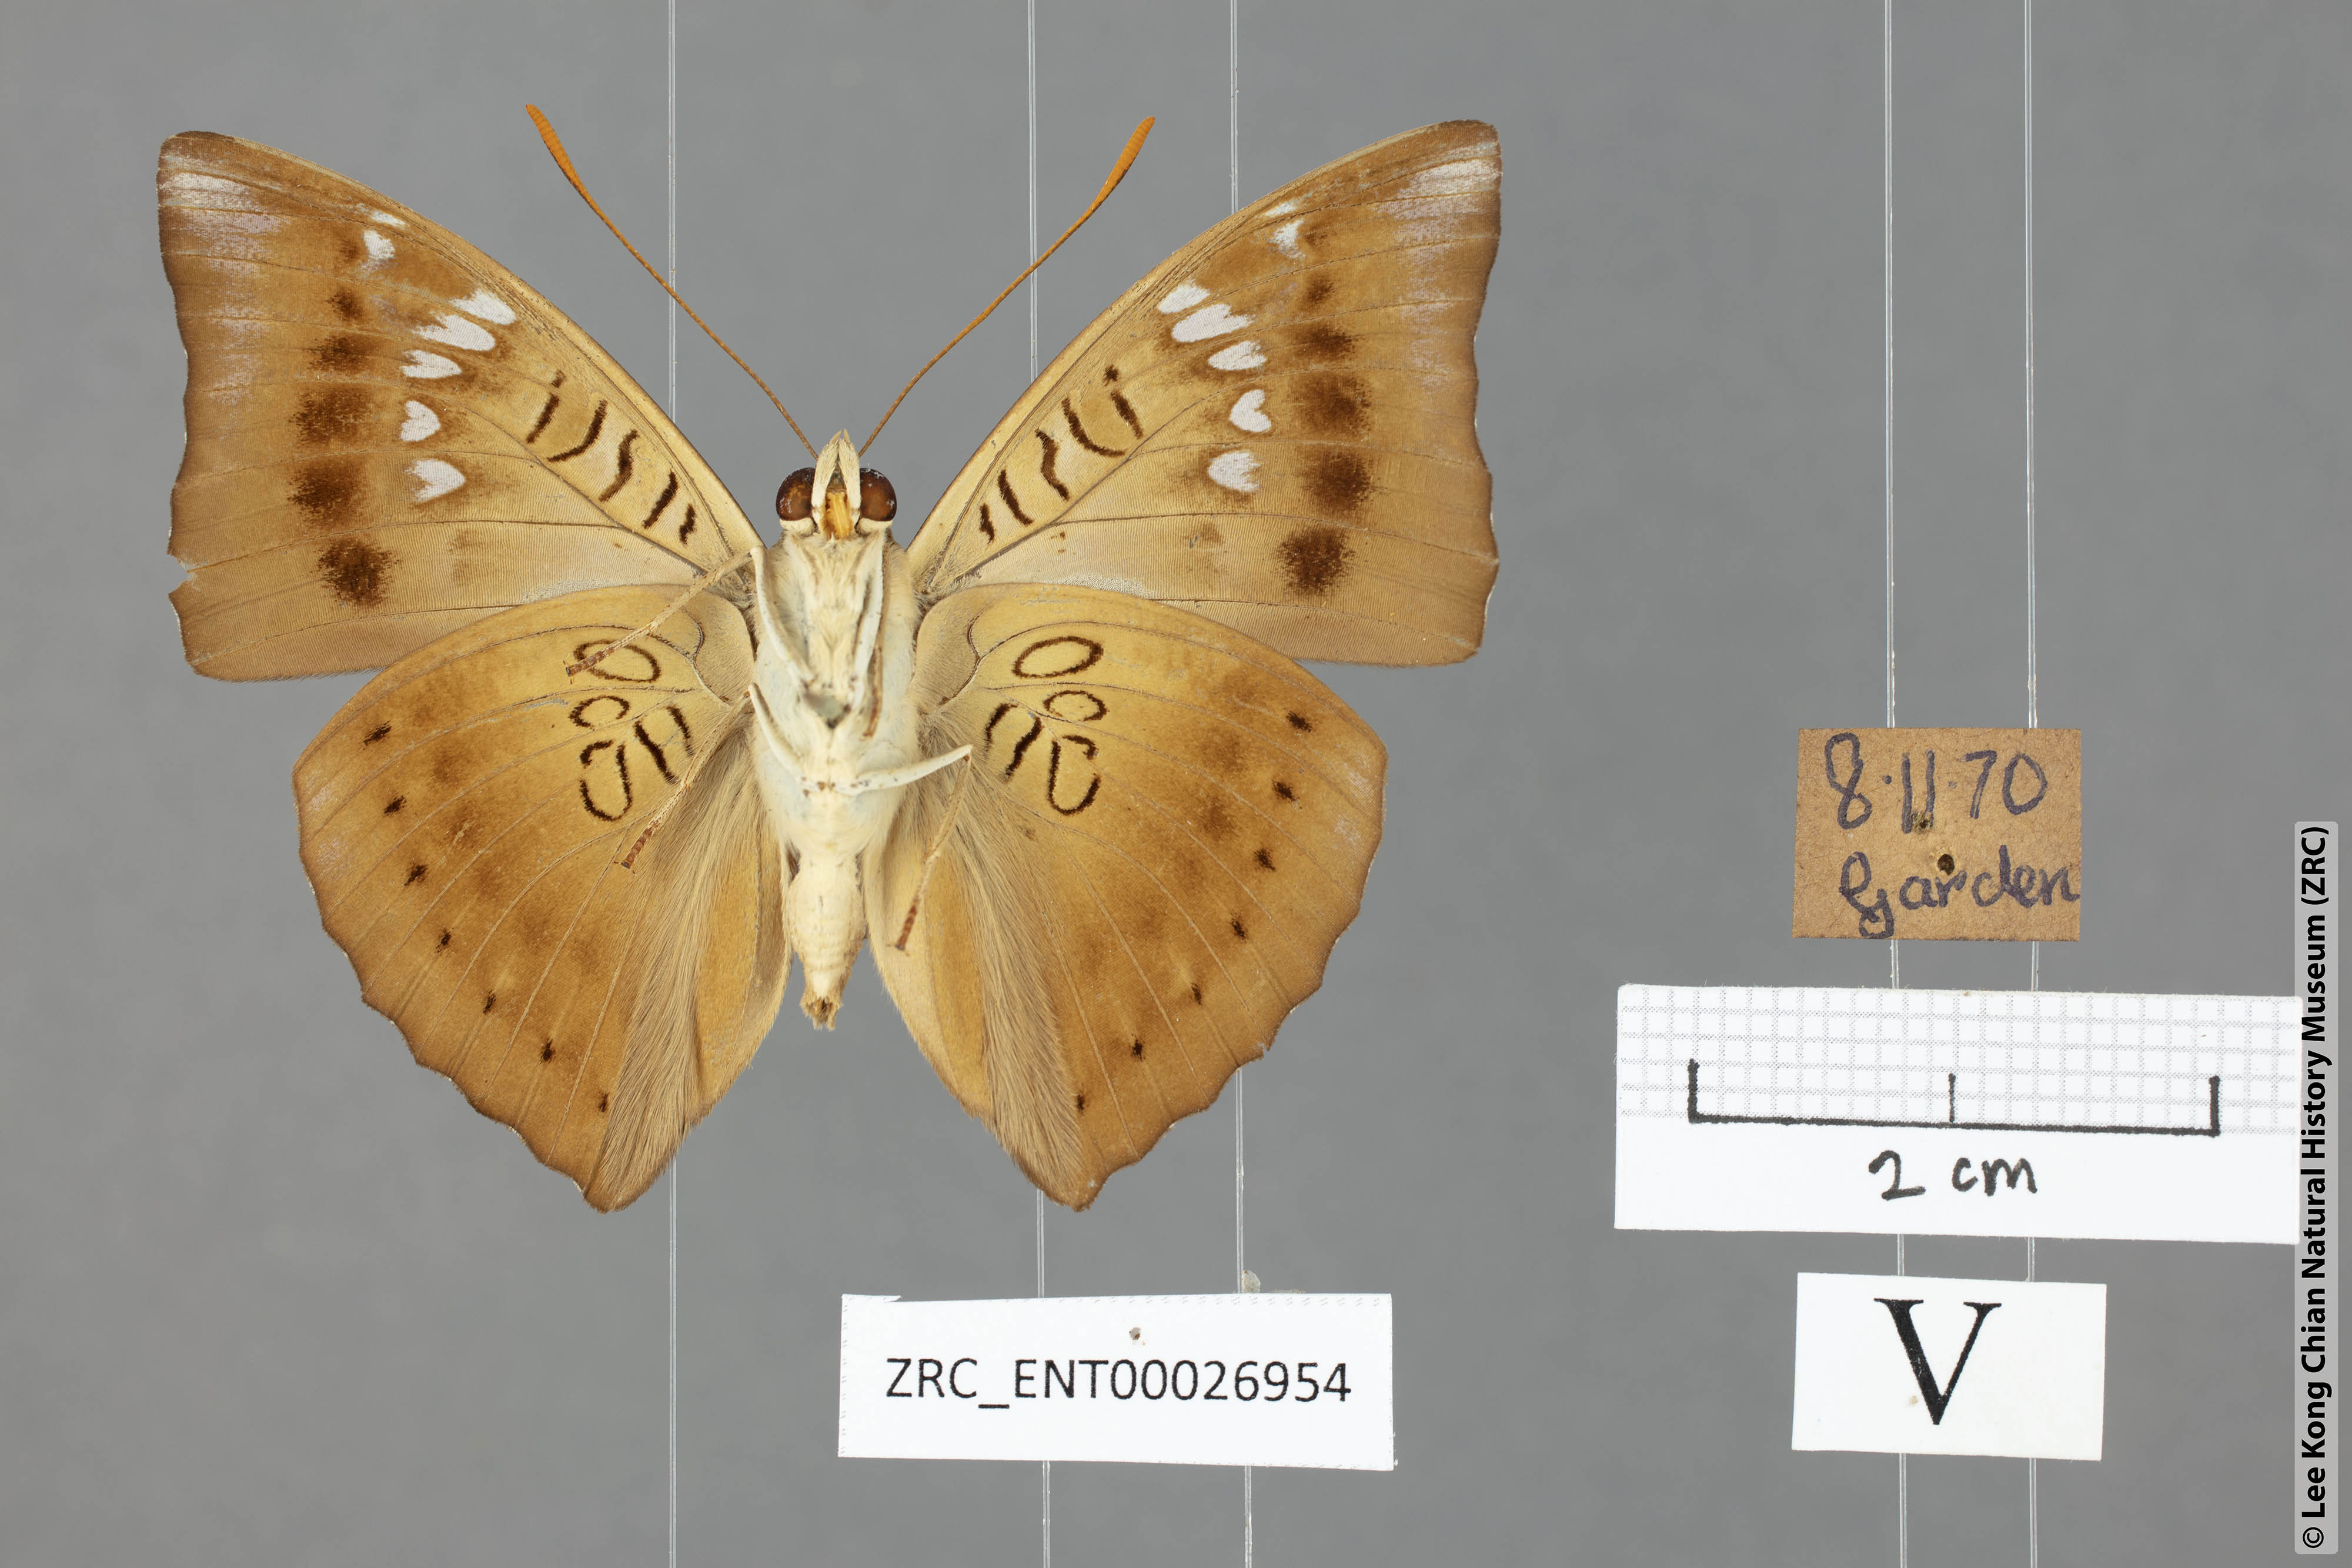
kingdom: Animalia
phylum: Arthropoda
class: Insecta
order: Lepidoptera
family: Nymphalidae
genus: Euthalia
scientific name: Euthalia aconthea
